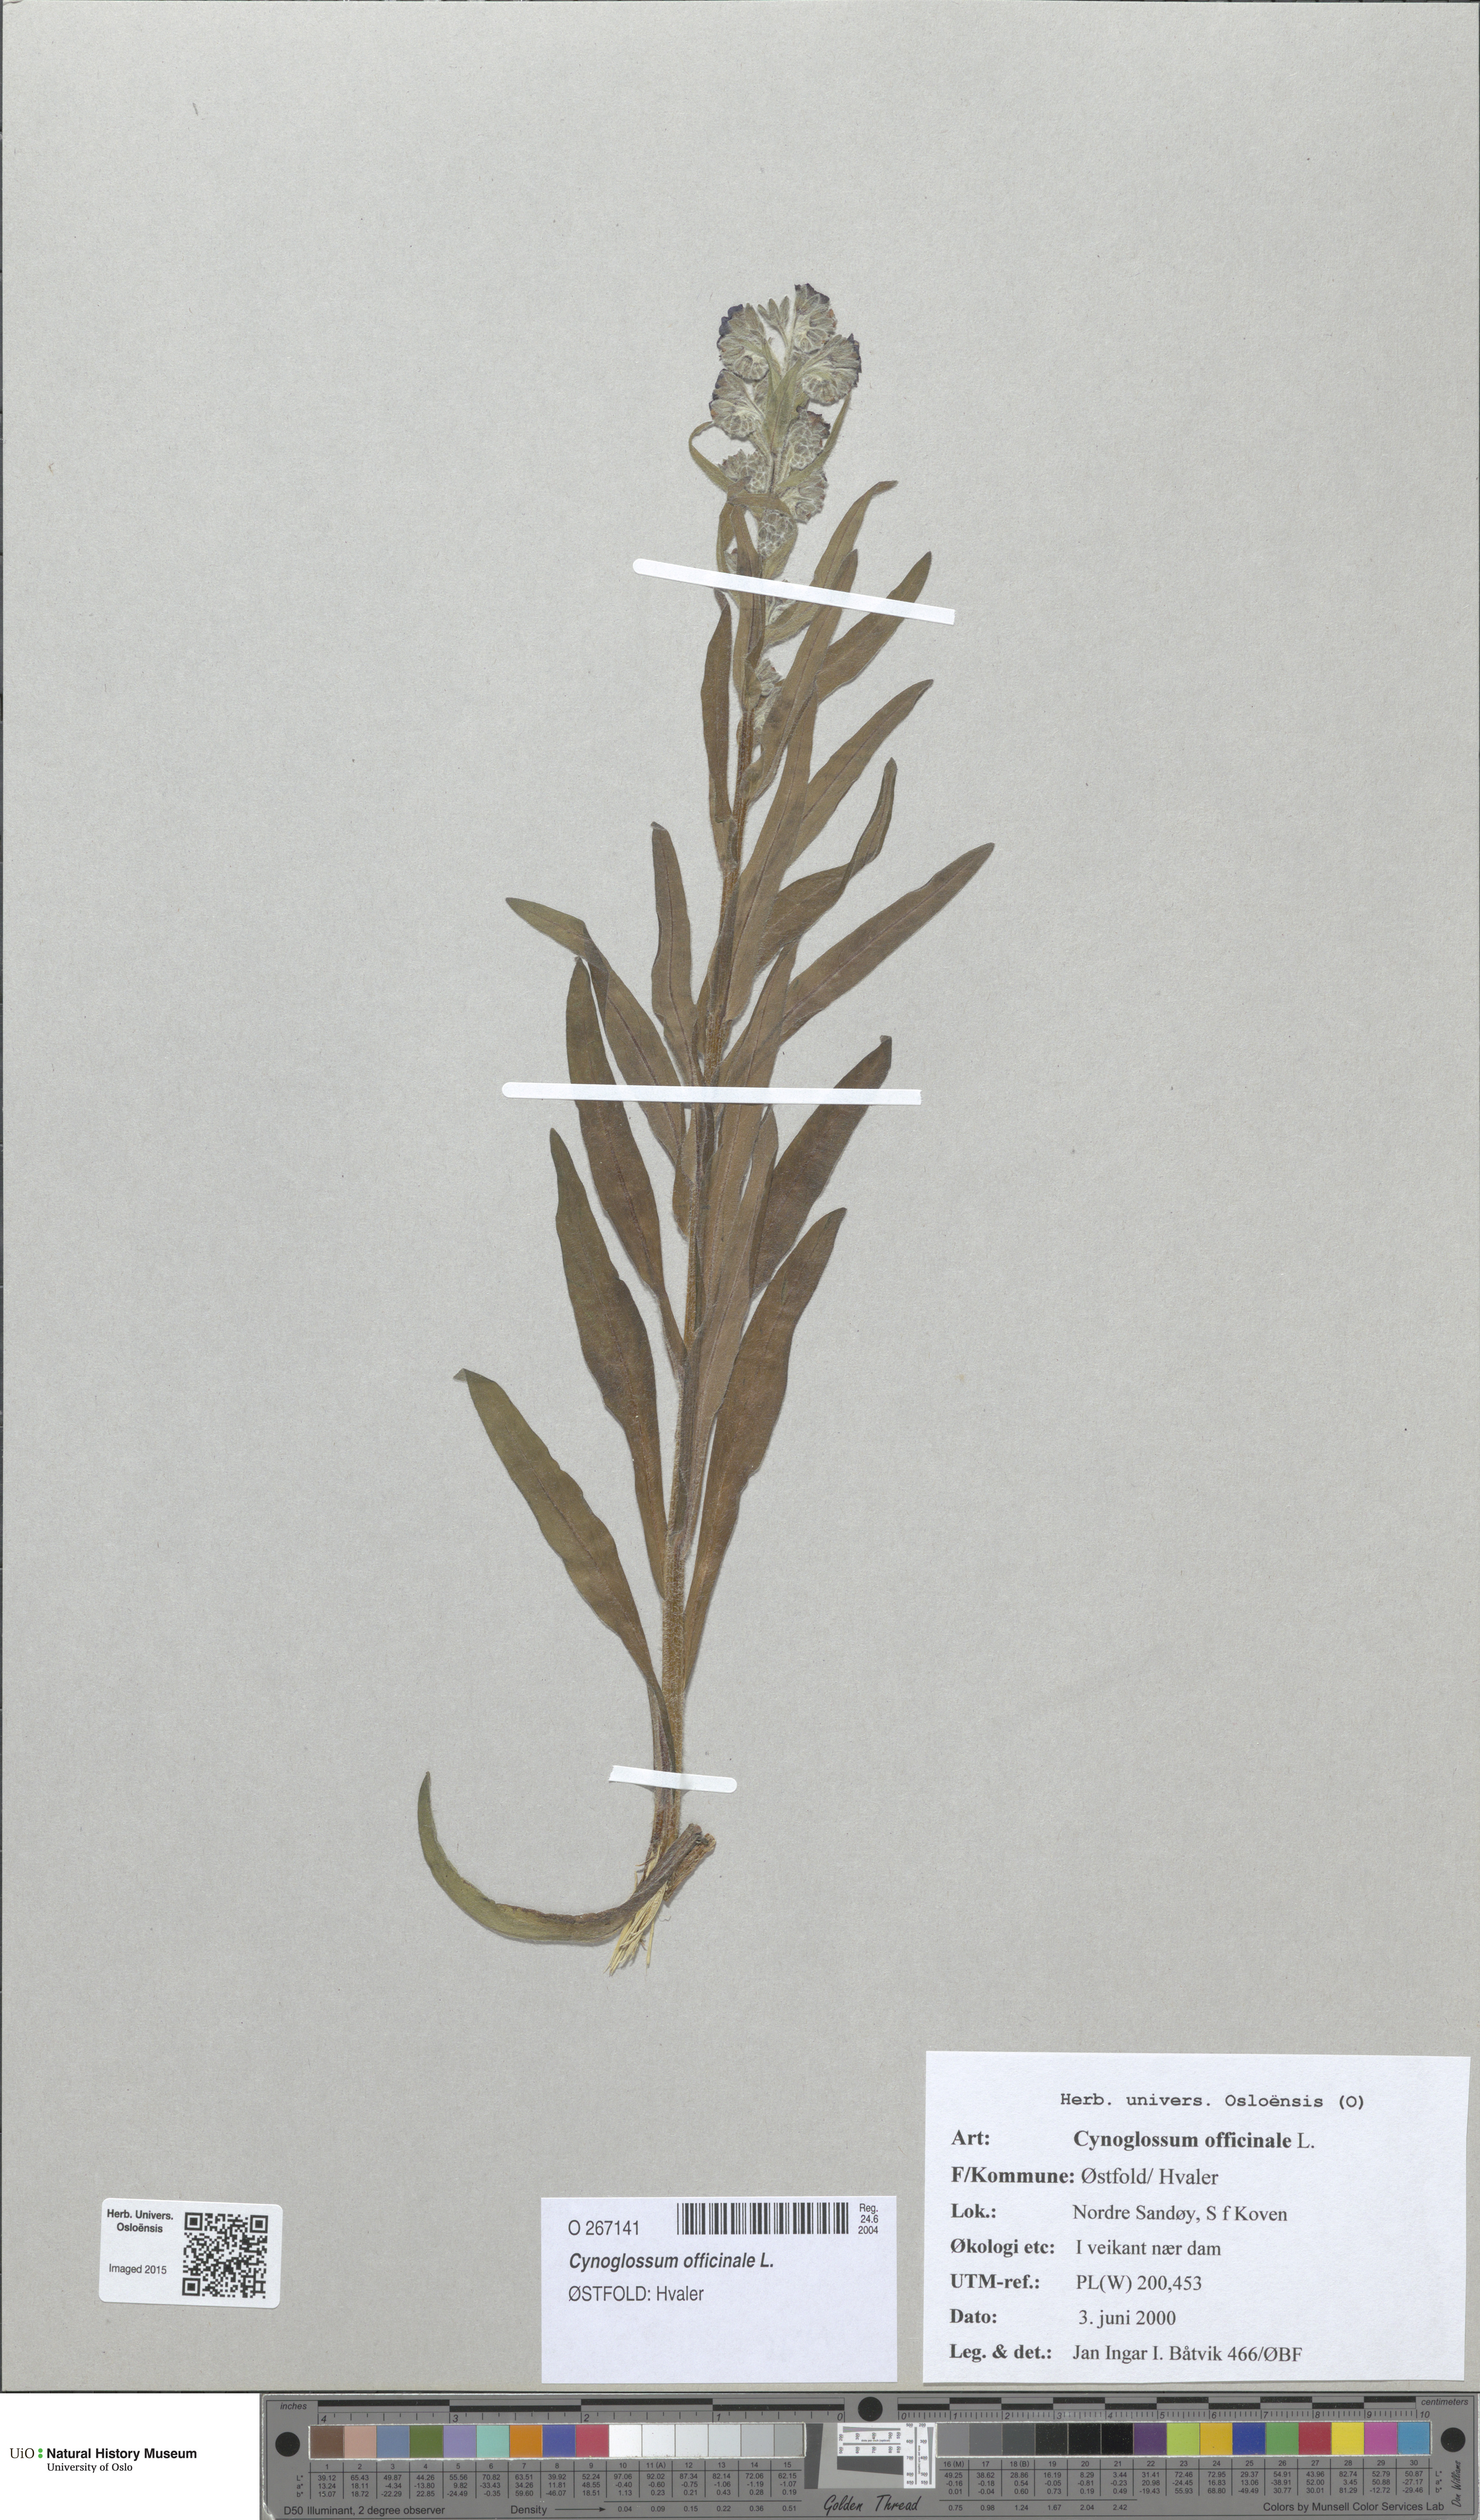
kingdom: Plantae
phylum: Tracheophyta
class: Magnoliopsida
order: Boraginales
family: Boraginaceae
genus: Cynoglossum
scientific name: Cynoglossum officinale
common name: Hound's-tongue
